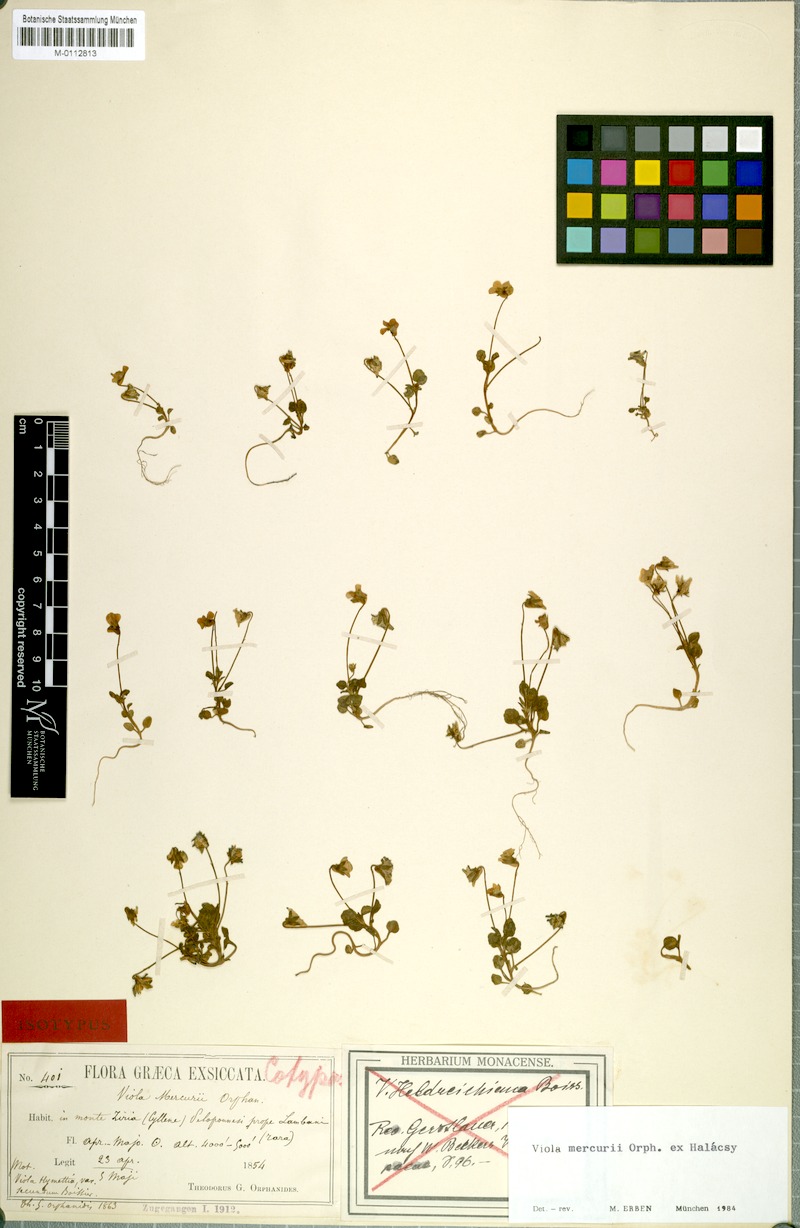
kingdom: Plantae
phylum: Tracheophyta
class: Magnoliopsida
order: Malpighiales
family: Violaceae
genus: Viola
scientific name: Viola mercurii
